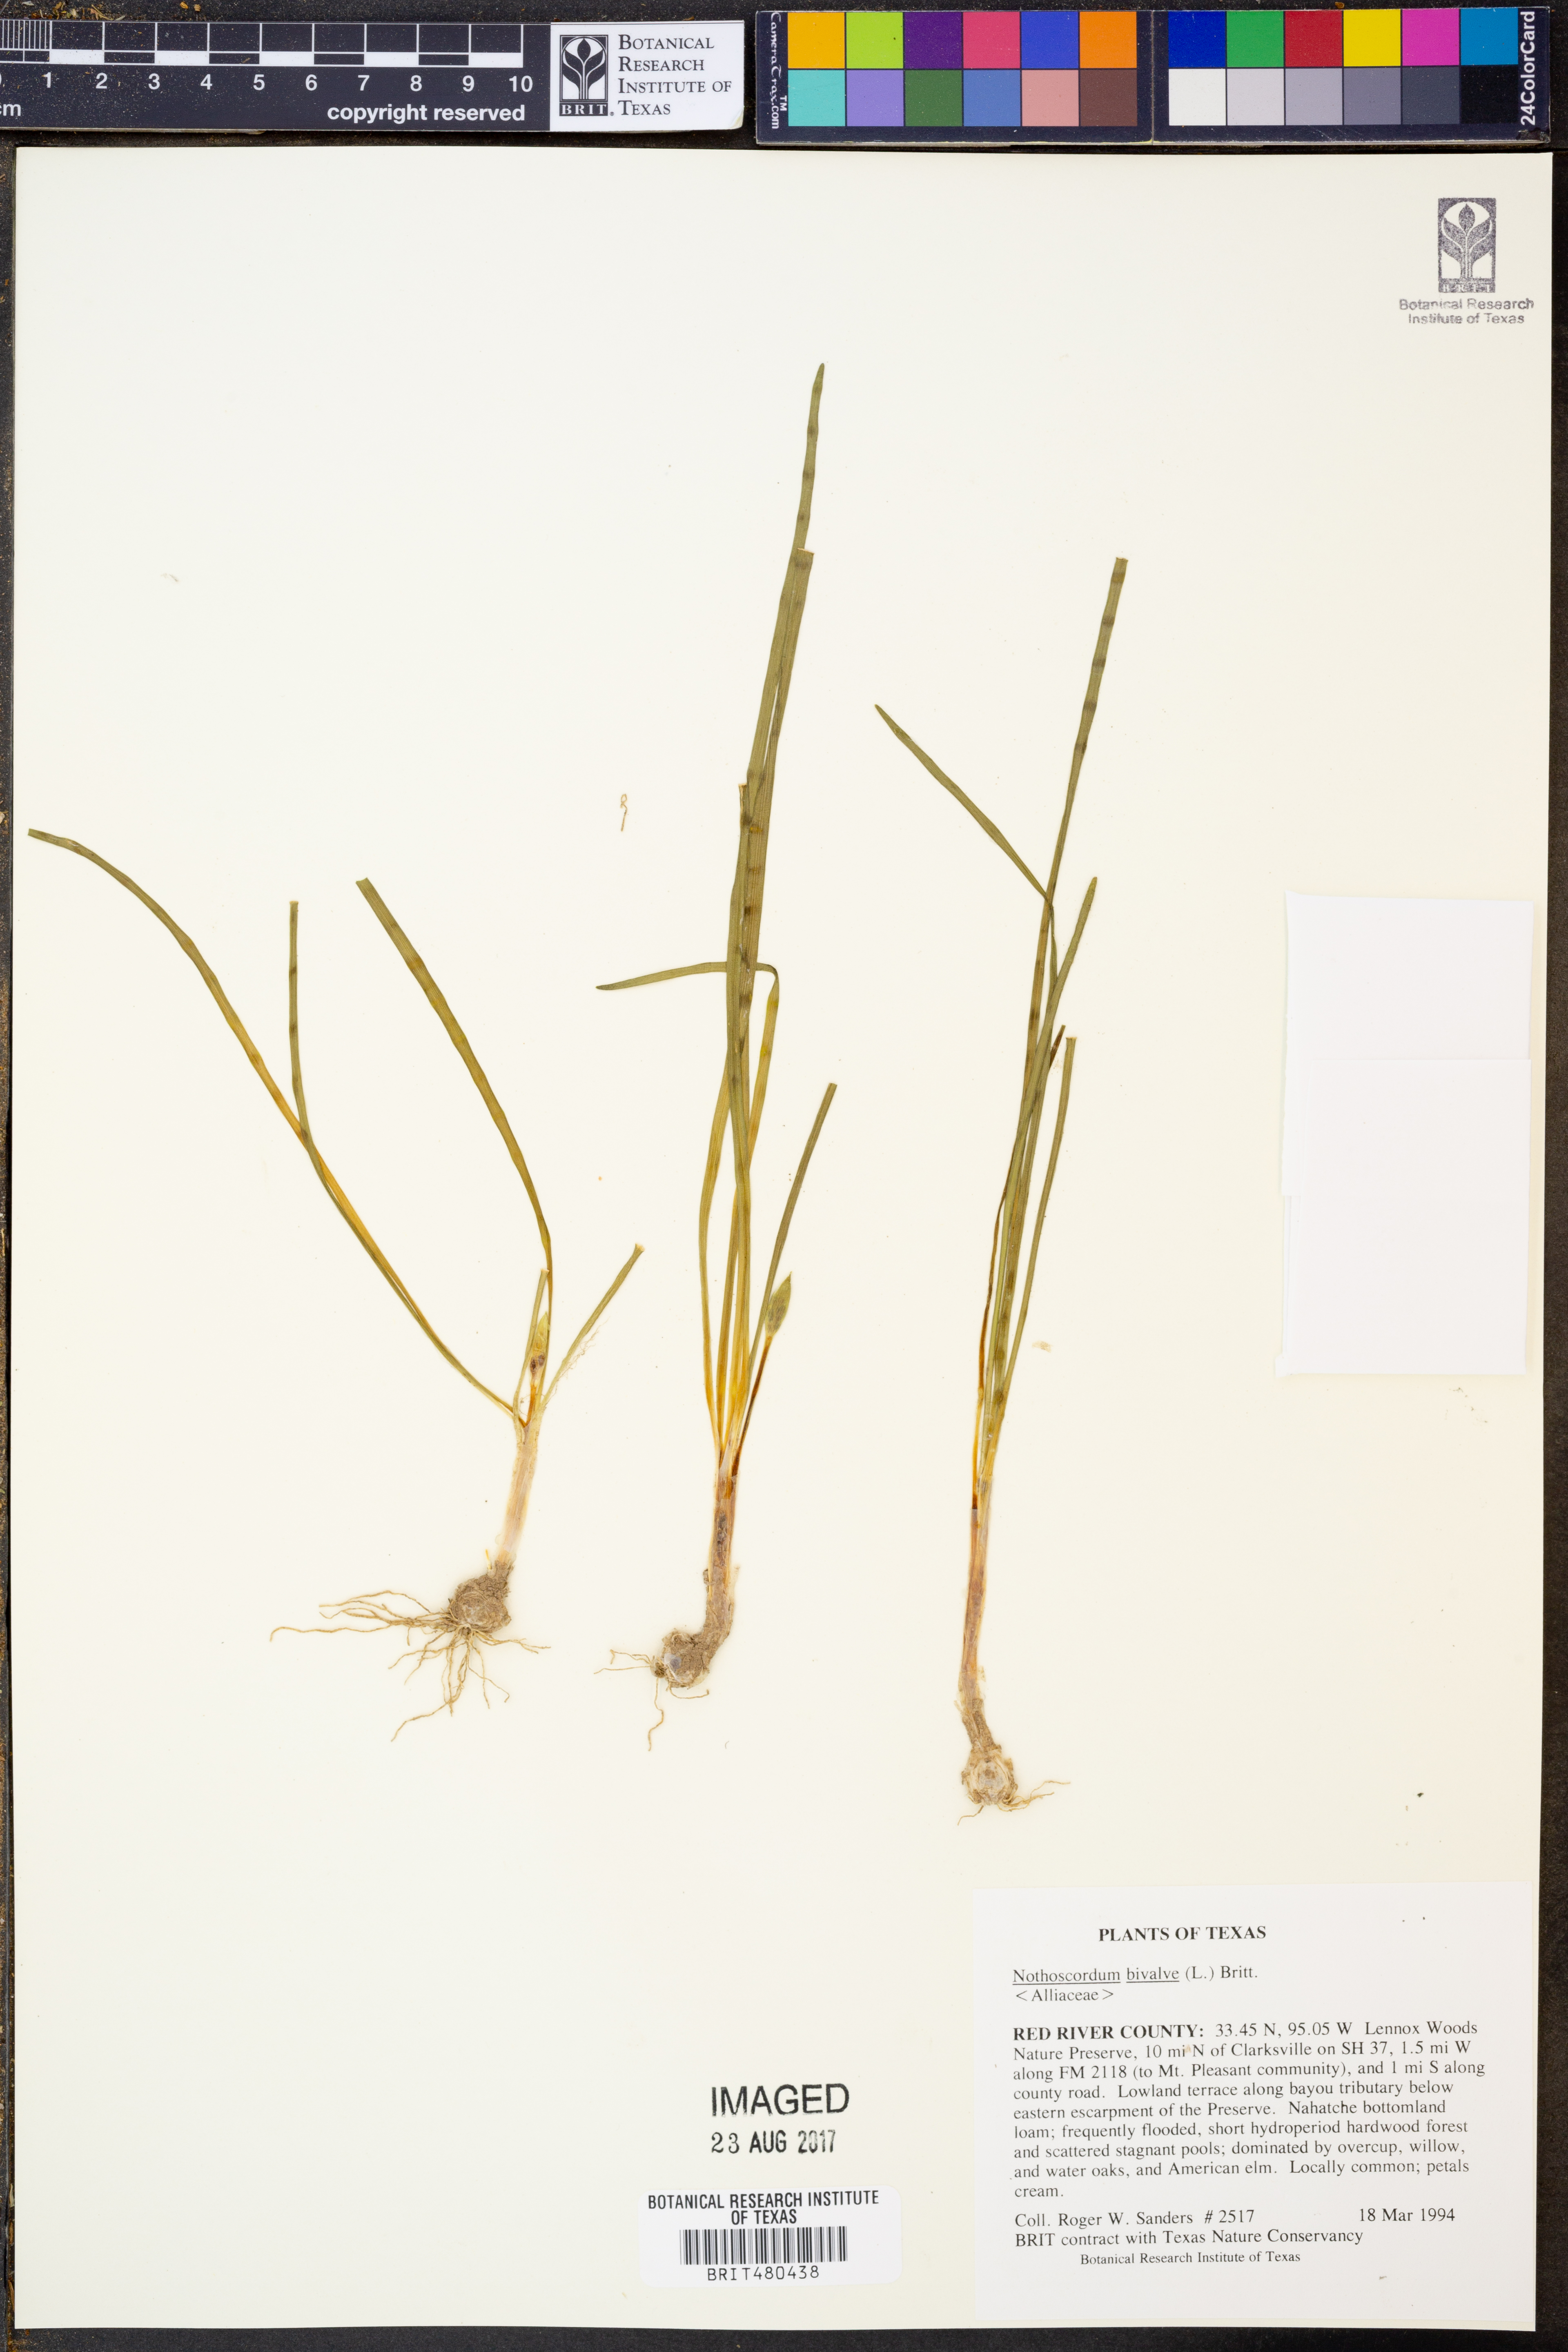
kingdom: Plantae
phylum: Tracheophyta
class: Liliopsida
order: Asparagales
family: Amaryllidaceae
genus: Nothoscordum
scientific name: Nothoscordum bivalve
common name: Crow-poison
